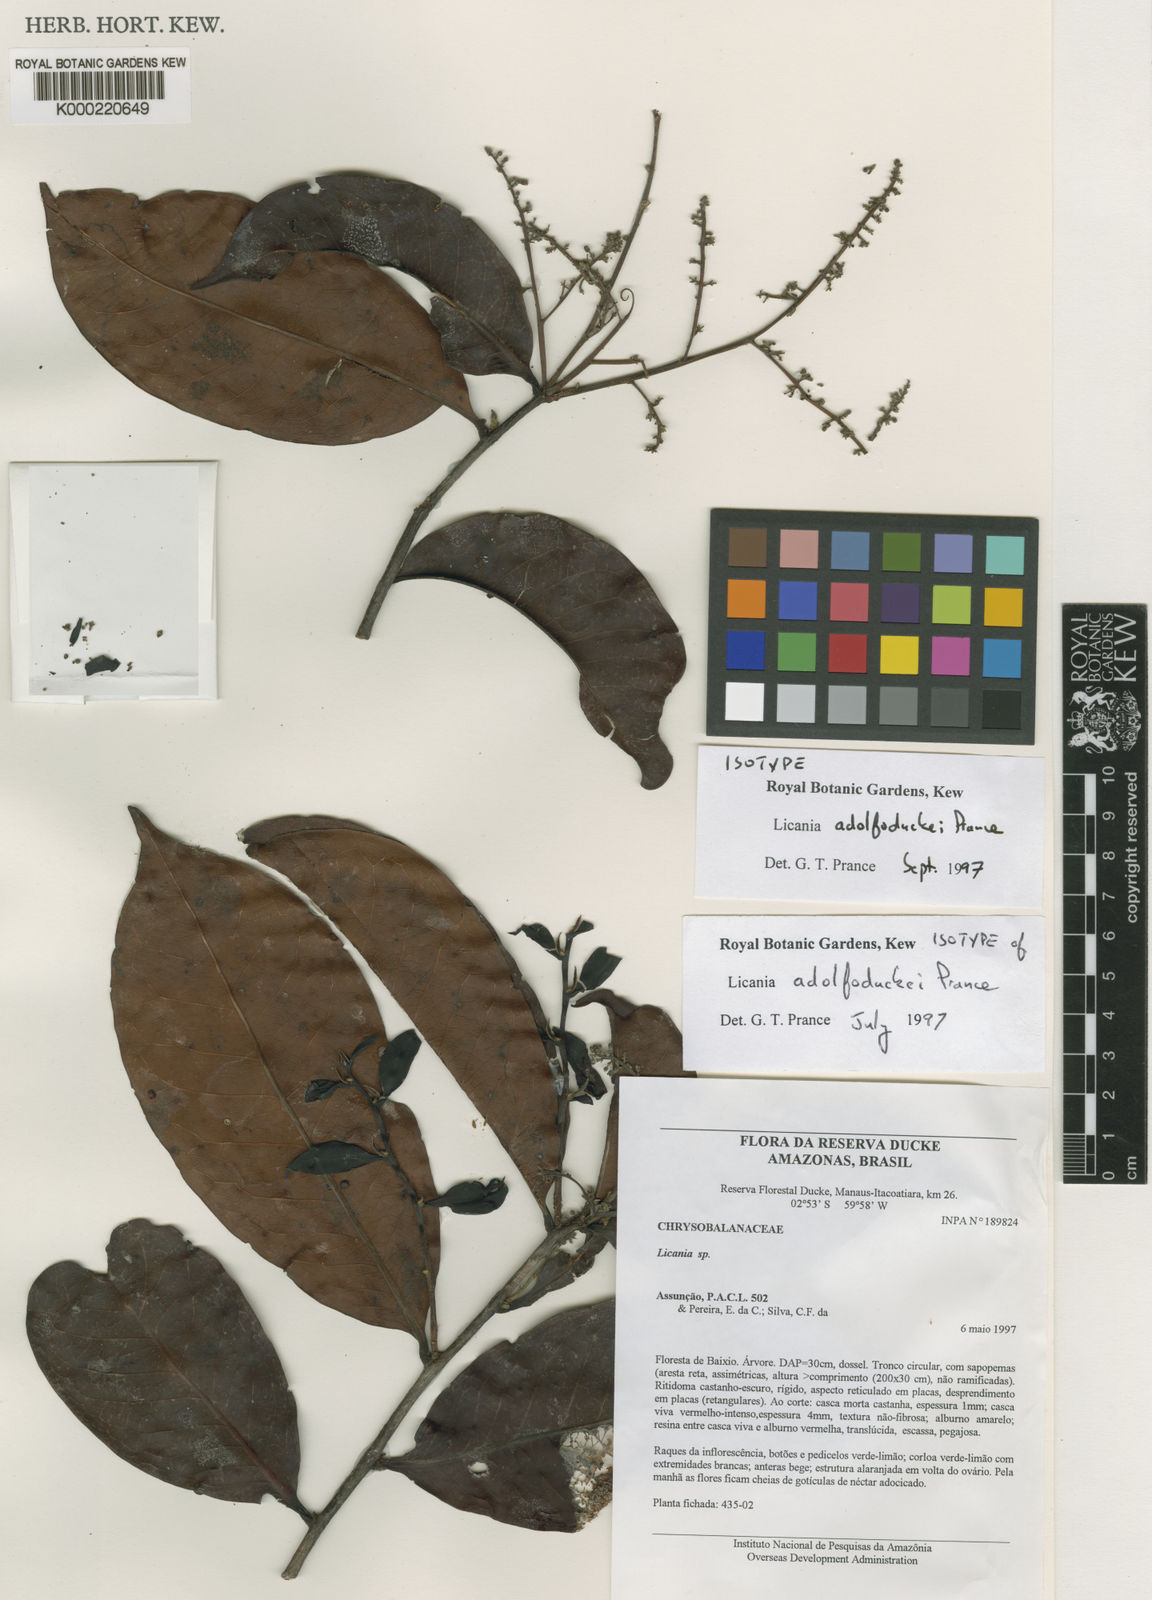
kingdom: Plantae
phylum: Tracheophyta
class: Magnoliopsida
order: Malpighiales
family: Chrysobalanaceae
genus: Hymenopus
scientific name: Hymenopus adolphoduckei
